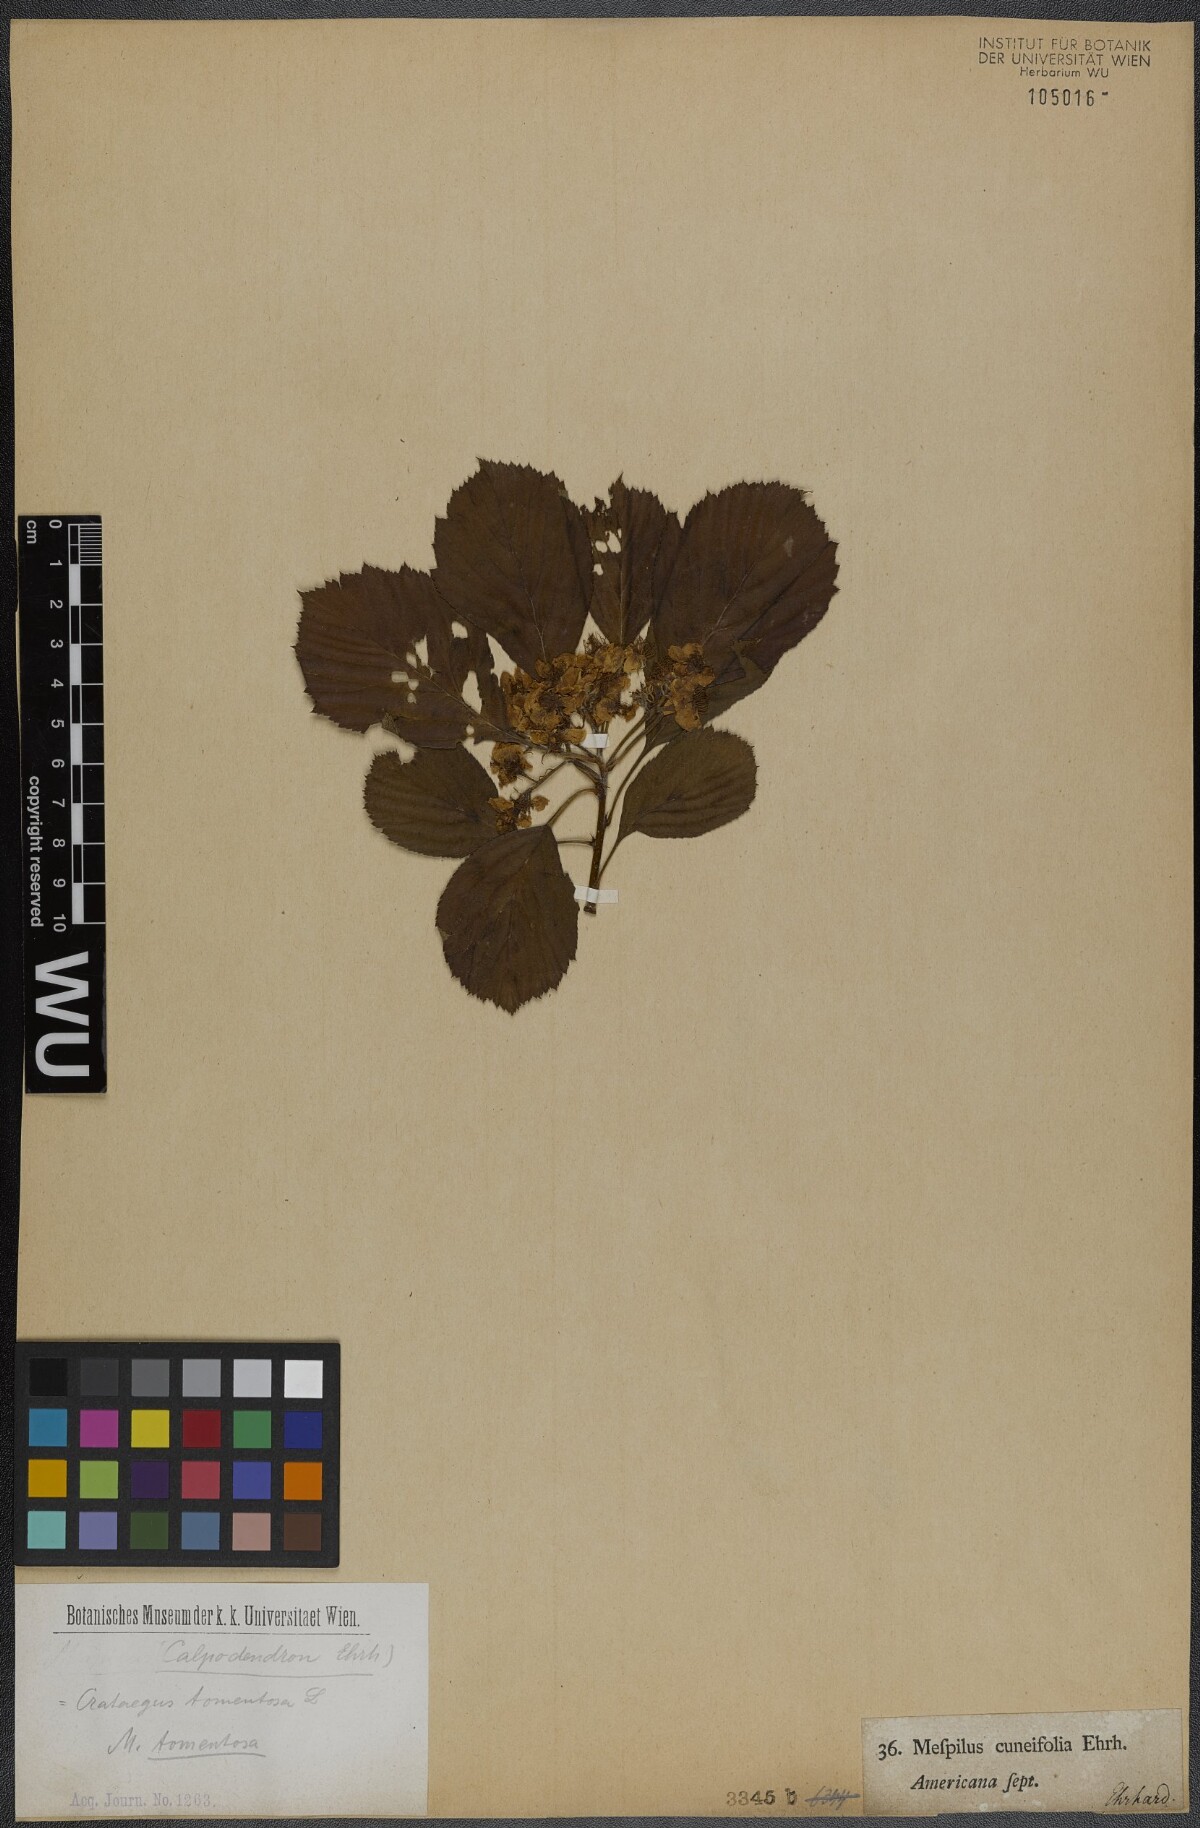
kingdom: Plantae
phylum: Tracheophyta
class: Magnoliopsida
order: Rosales
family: Rosaceae
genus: Crataegus
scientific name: Crataegus calpodendron
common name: Pear hawthorn
